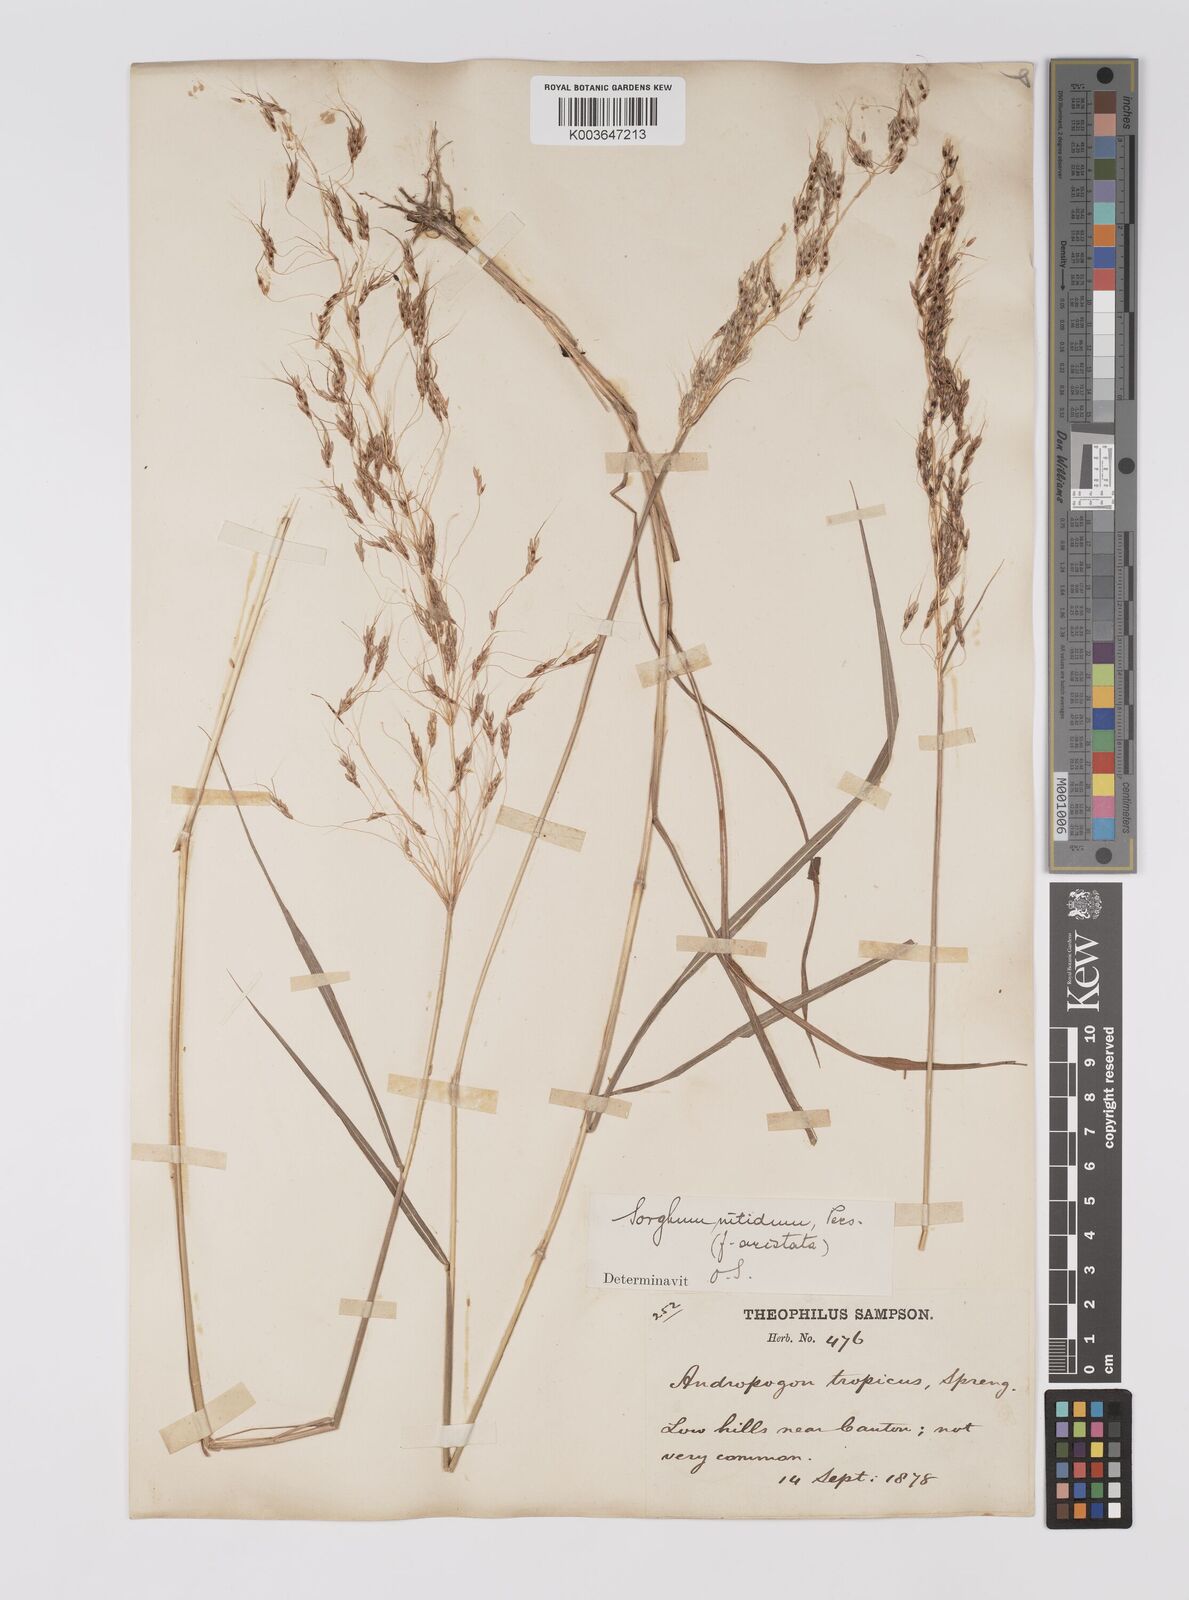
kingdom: Plantae
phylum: Tracheophyta
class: Liliopsida
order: Poales
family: Poaceae
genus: Sorghum
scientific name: Sorghum nitidum
